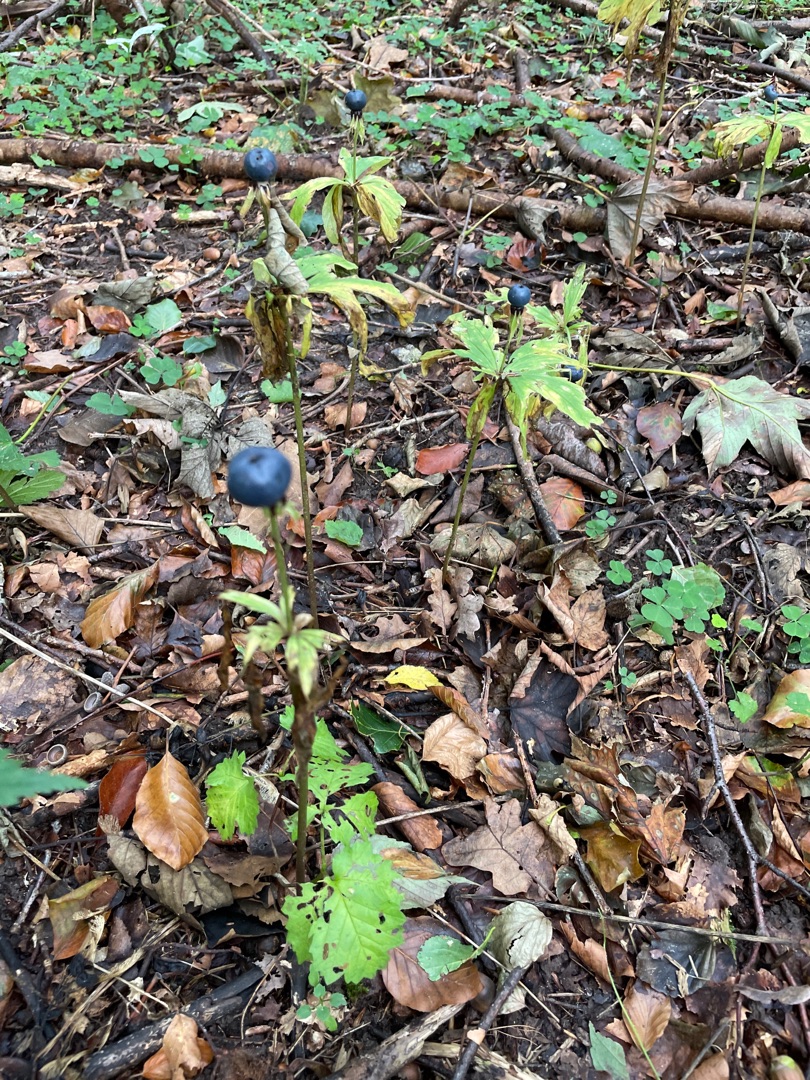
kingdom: Plantae
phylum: Tracheophyta
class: Liliopsida
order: Liliales
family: Melanthiaceae
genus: Paris
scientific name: Paris quadrifolia
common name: Firblad
